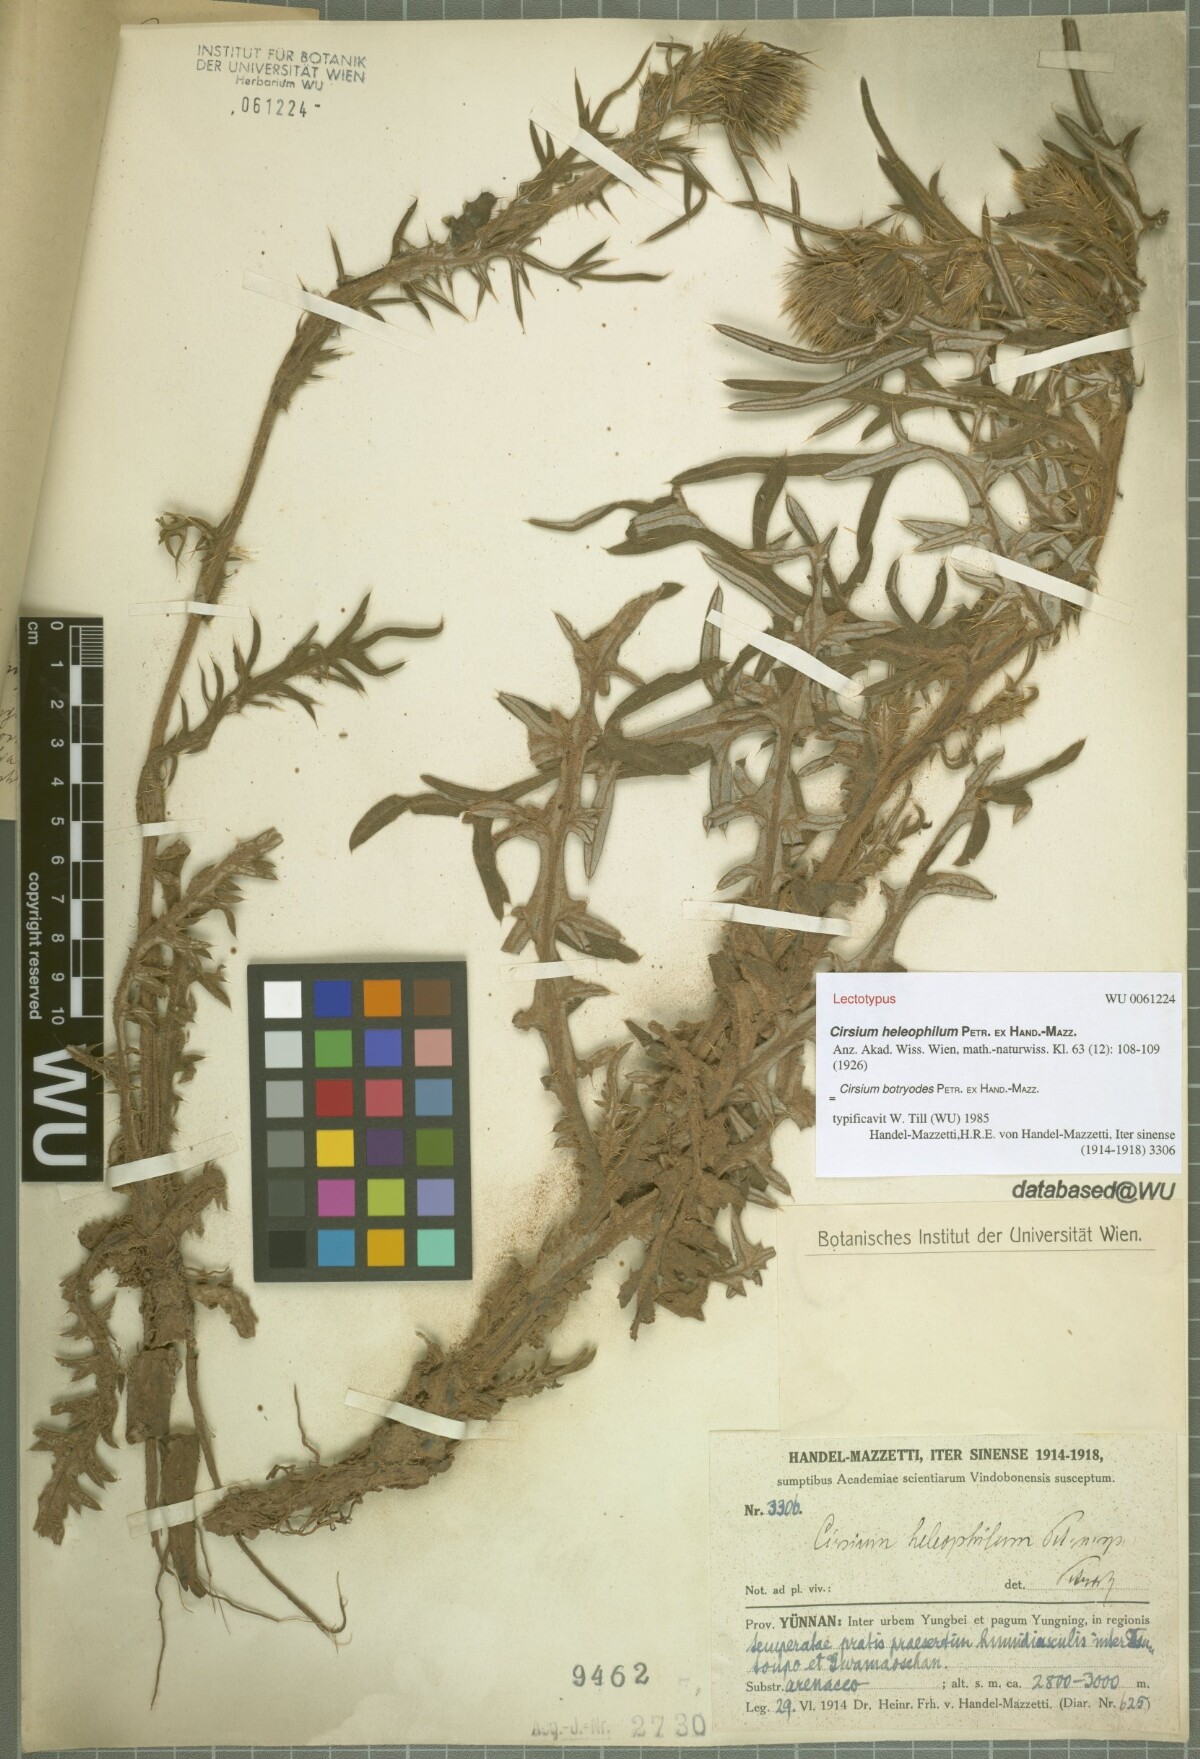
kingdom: Plantae
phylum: Tracheophyta
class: Magnoliopsida
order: Asterales
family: Asteraceae
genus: Cirsium
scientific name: Cirsium botryodes
